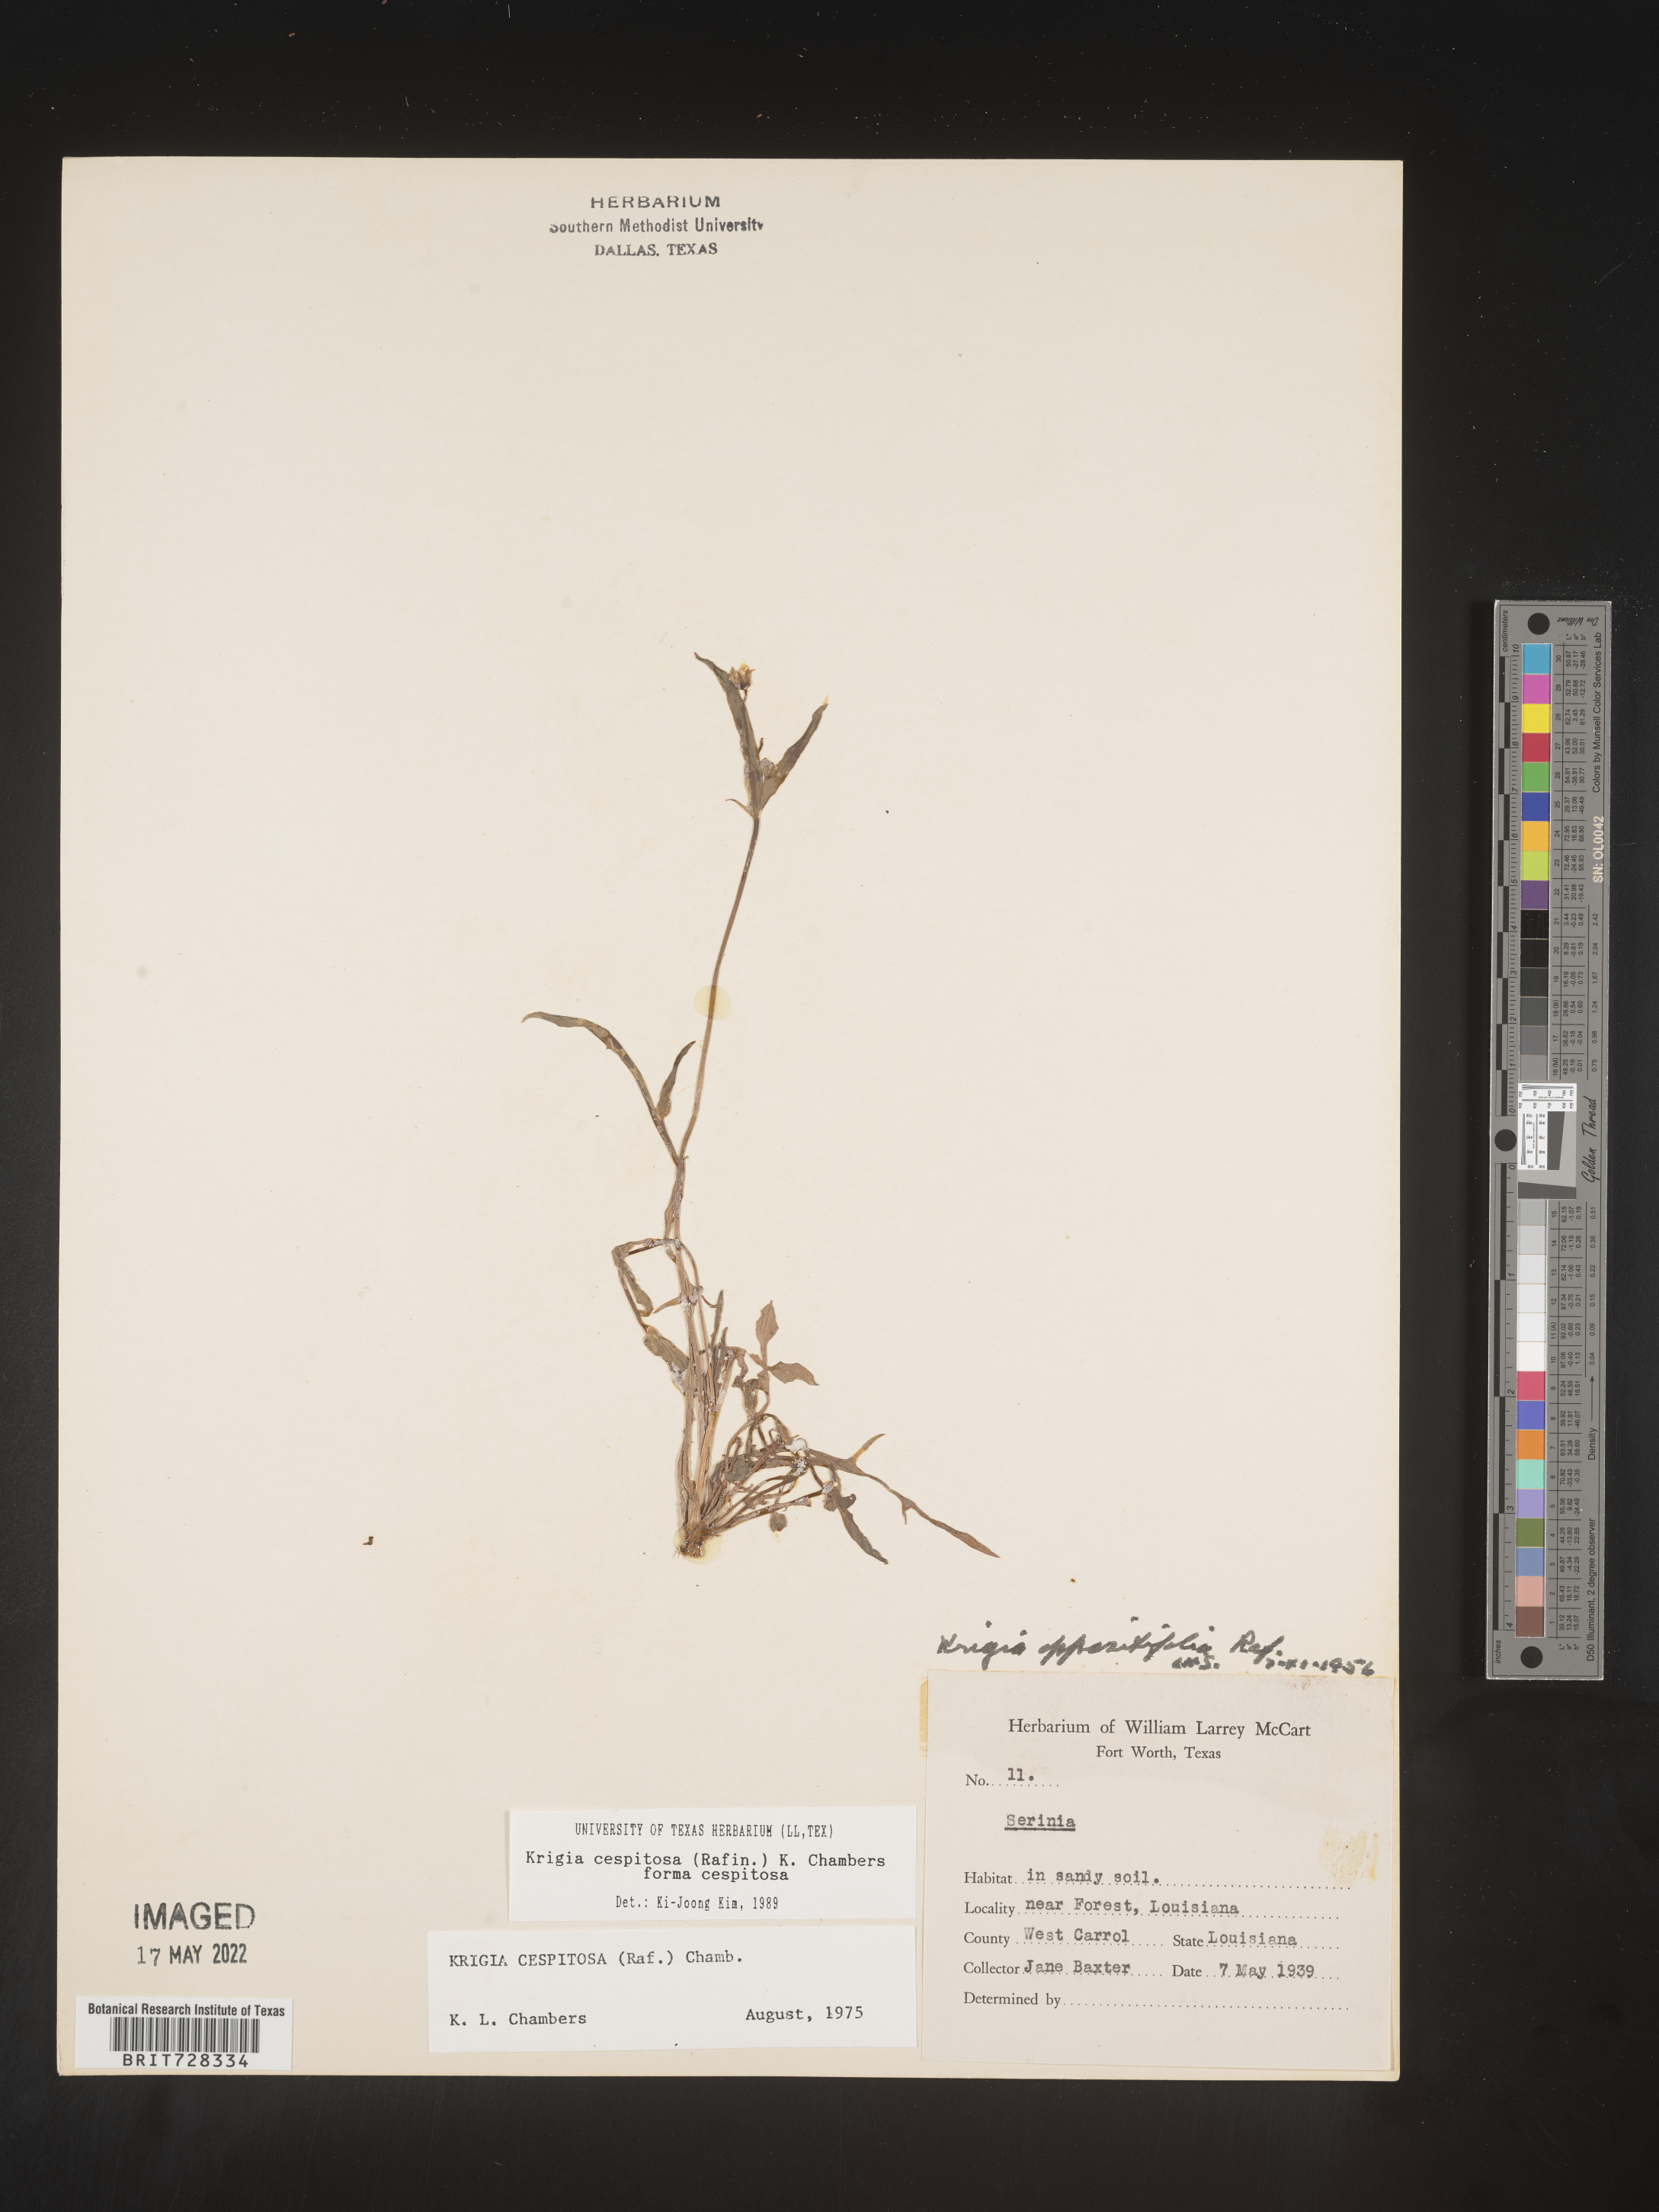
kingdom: Plantae
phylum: Tracheophyta
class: Magnoliopsida
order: Asterales
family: Asteraceae
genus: Krigia
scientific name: Krigia caespitosa
